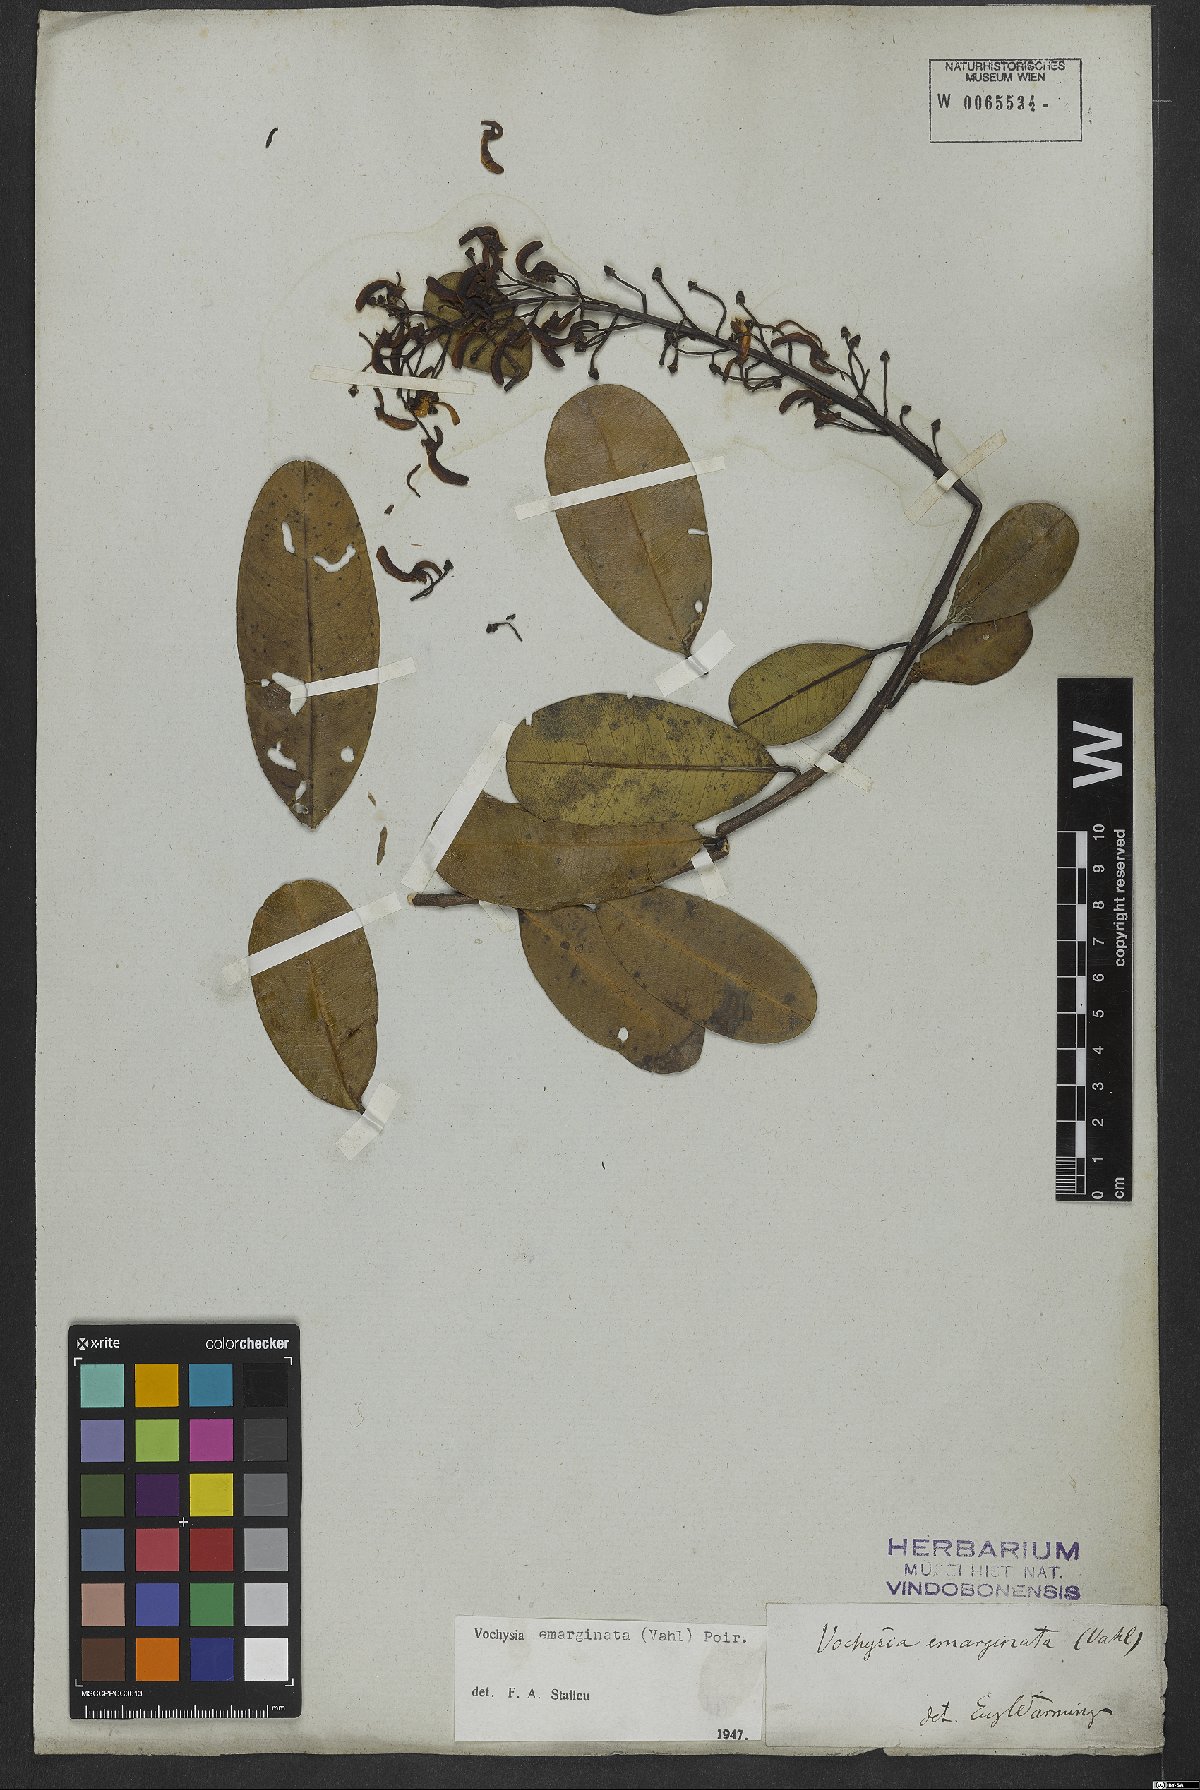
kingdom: Plantae
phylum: Tracheophyta
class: Magnoliopsida
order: Myrtales
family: Vochysiaceae
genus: Vochysia
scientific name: Vochysia emarginata
